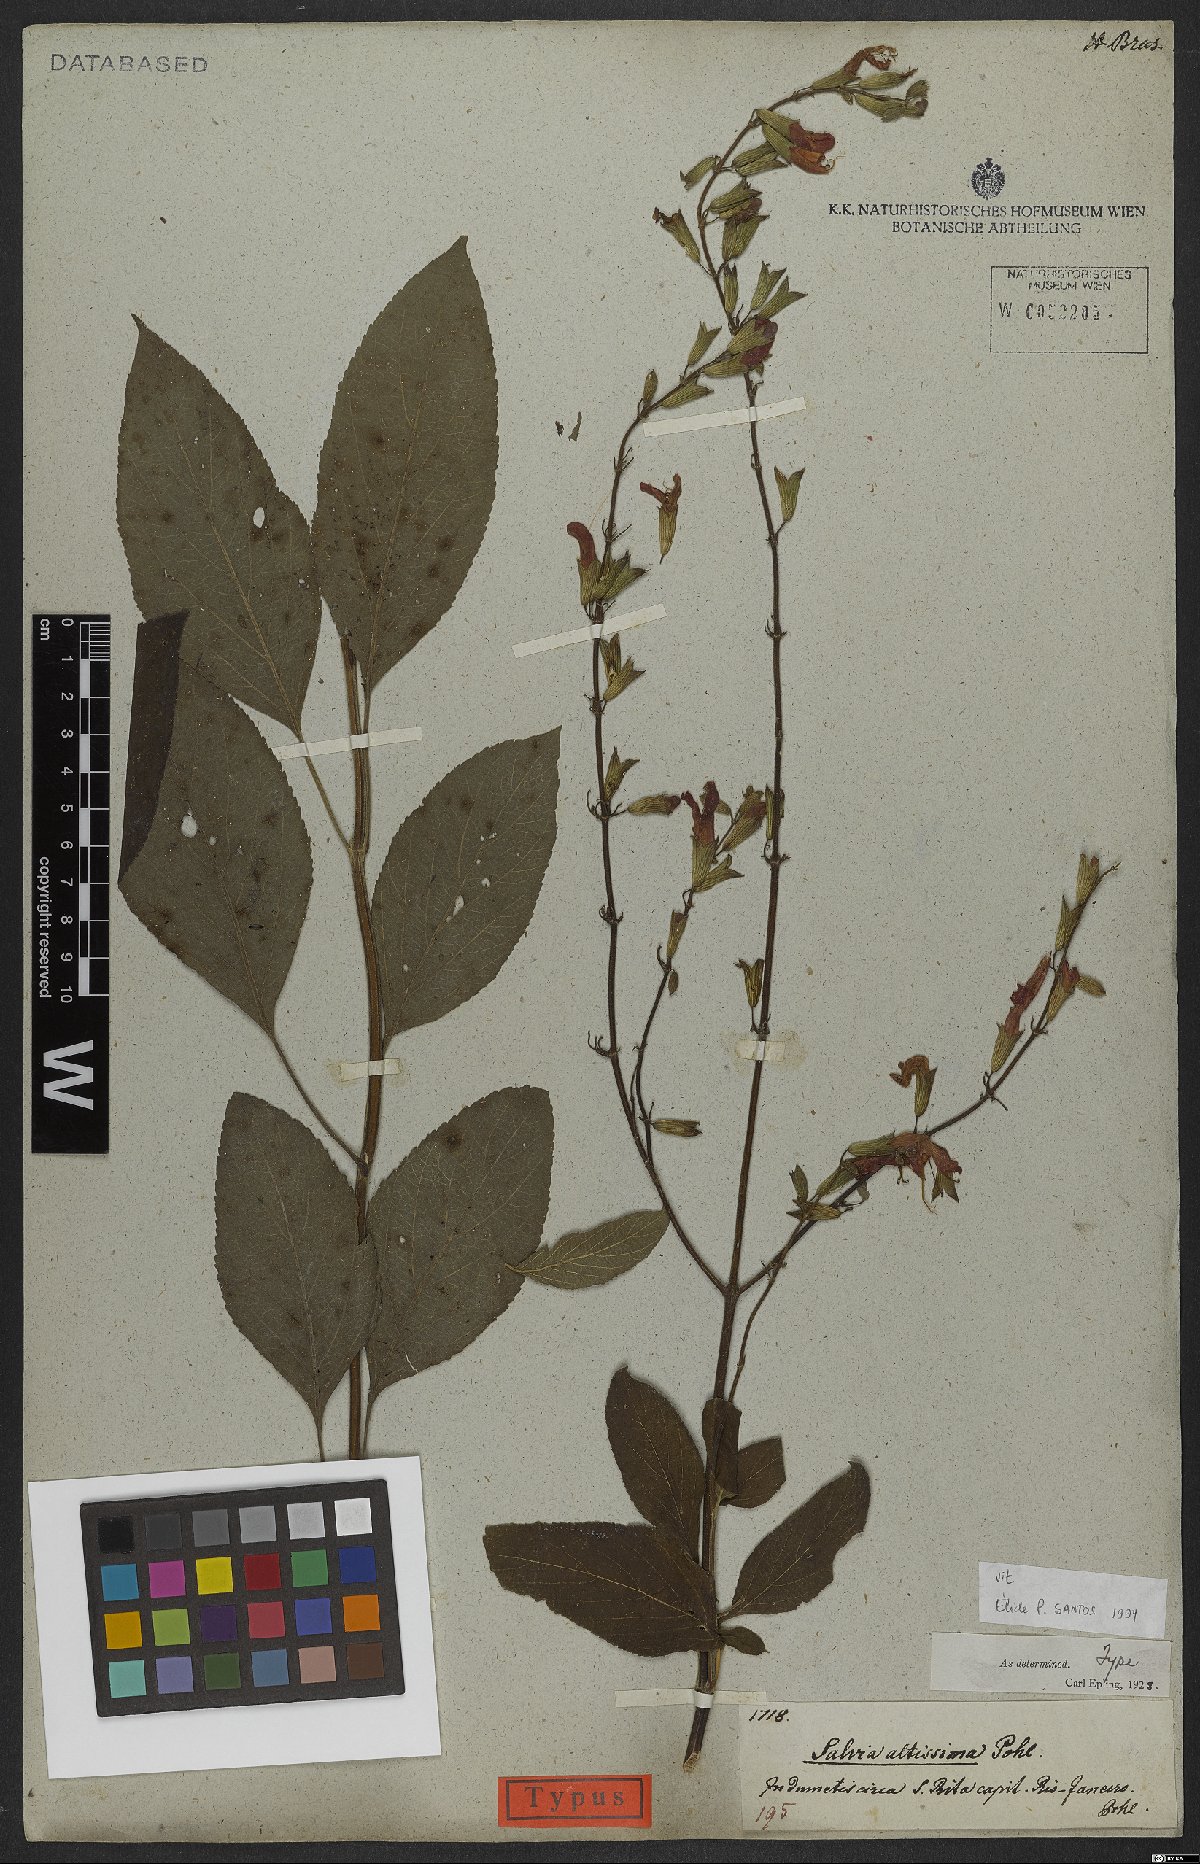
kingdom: Plantae
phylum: Tracheophyta
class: Magnoliopsida
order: Lamiales
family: Lamiaceae
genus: Salvia
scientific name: Salvia altissima
